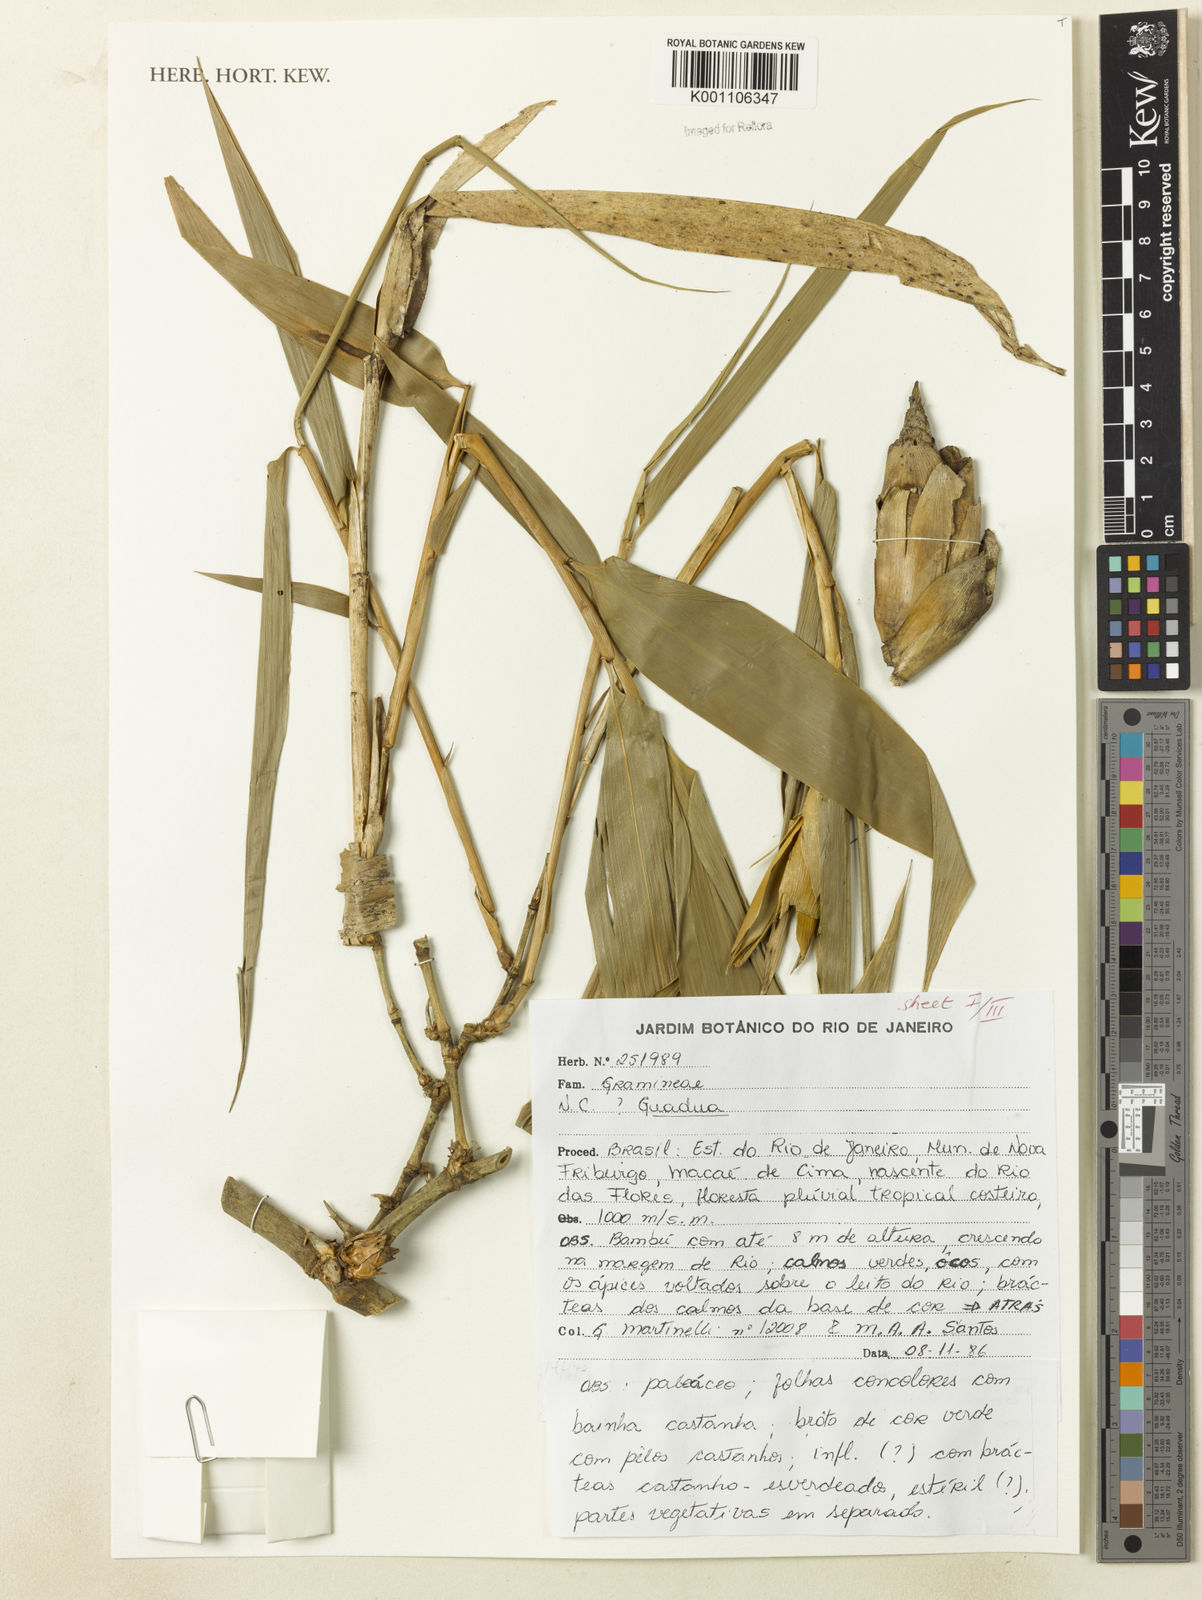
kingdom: Plantae
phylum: Tracheophyta
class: Liliopsida
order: Poales
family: Poaceae
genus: Guadua
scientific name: Guadua tagoara
